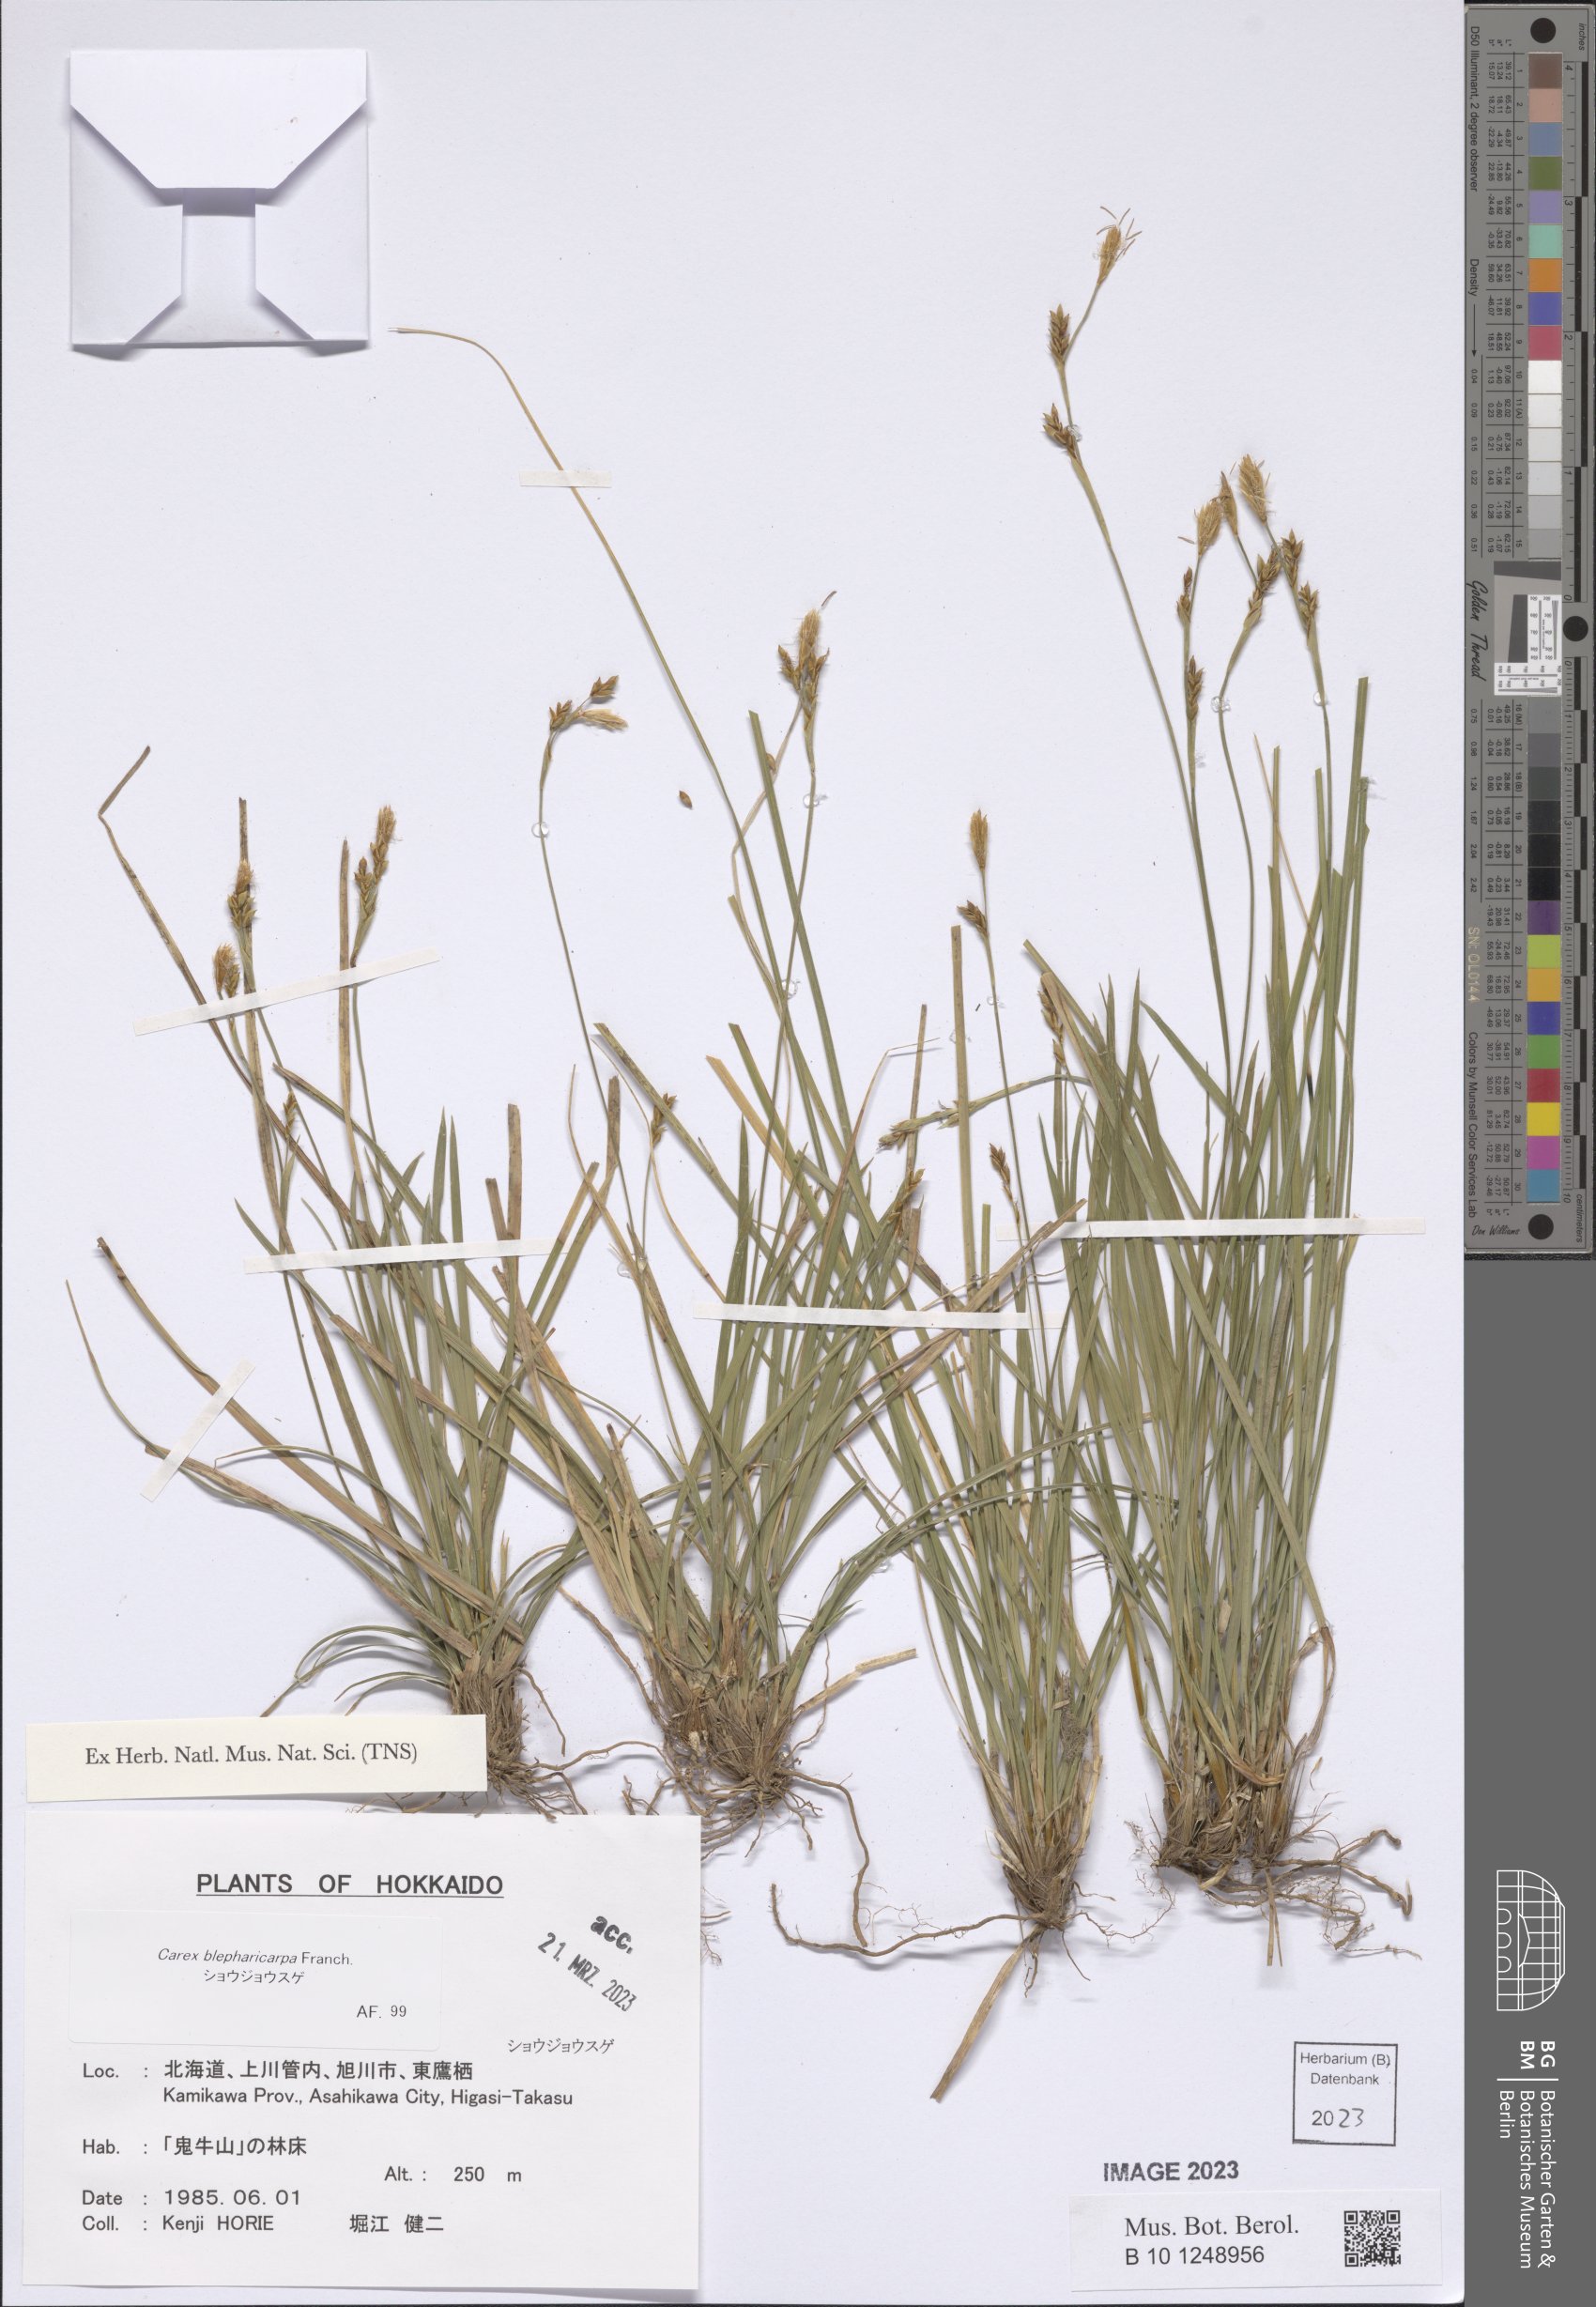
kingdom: Plantae
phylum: Tracheophyta
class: Liliopsida
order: Poales
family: Cyperaceae
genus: Carex
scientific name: Carex blepharicarpa
